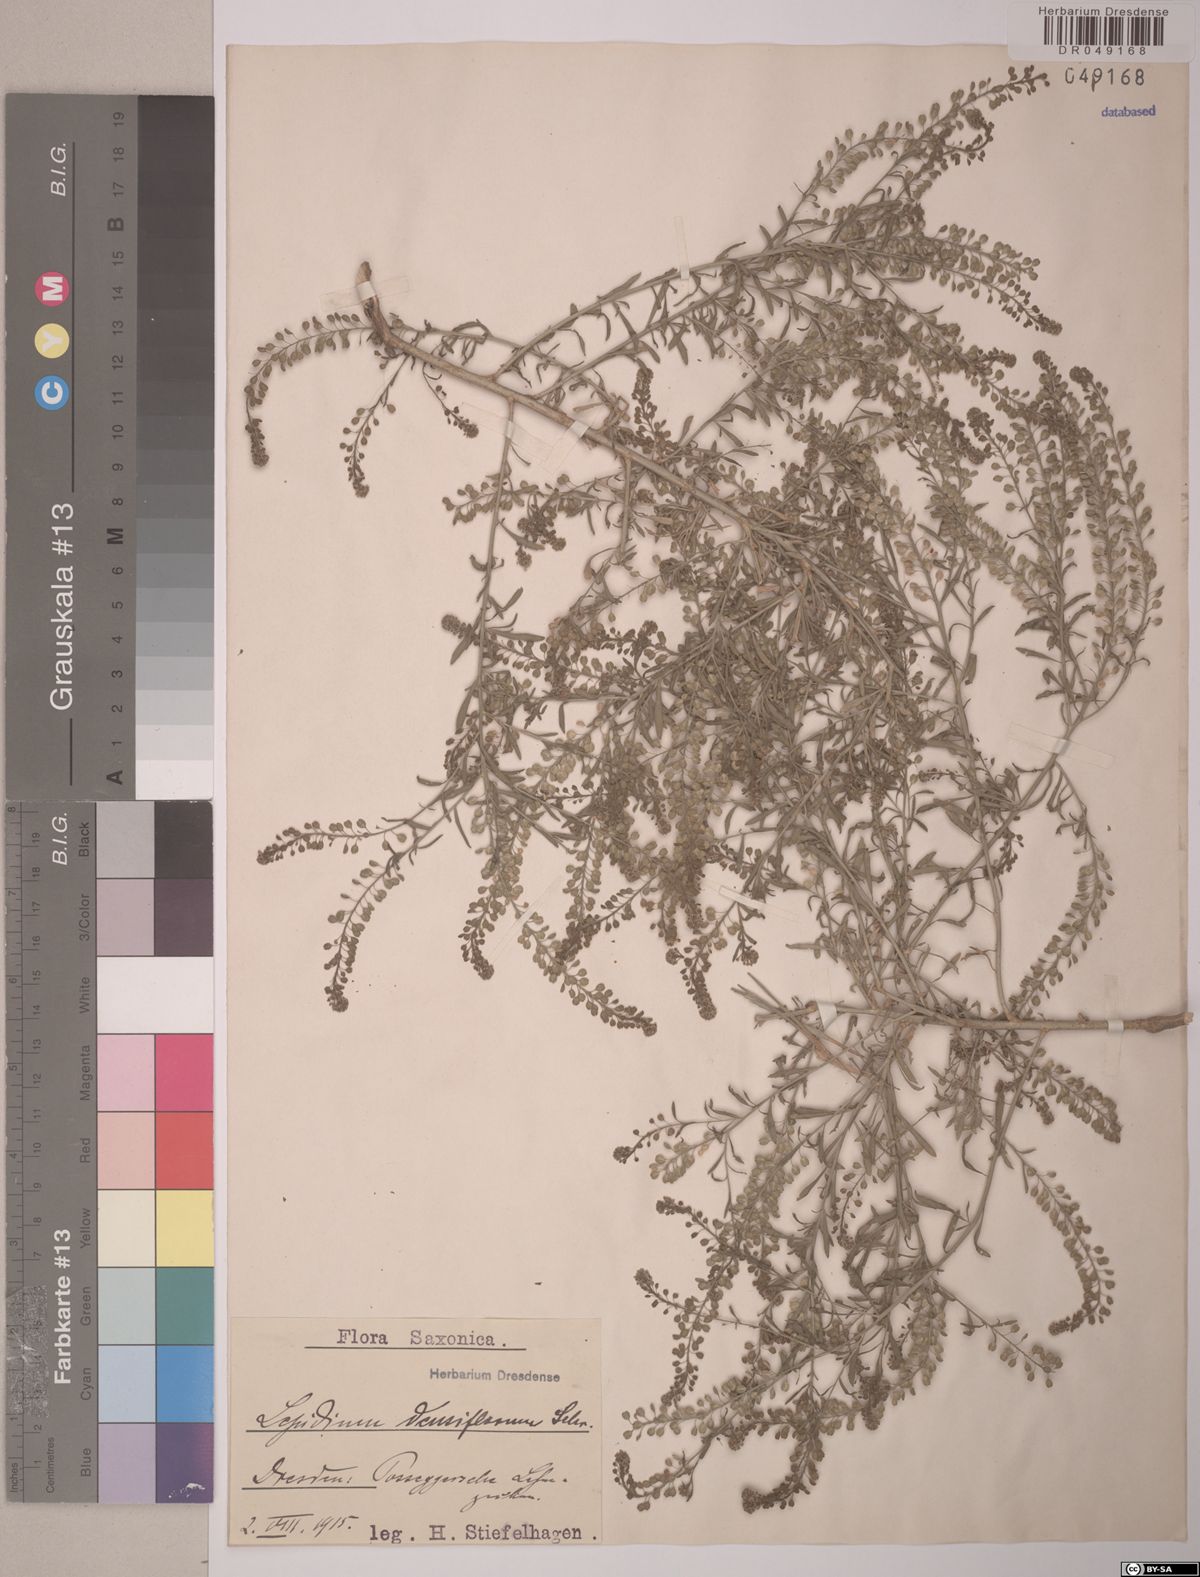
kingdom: Plantae
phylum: Tracheophyta
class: Magnoliopsida
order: Brassicales
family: Brassicaceae
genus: Lepidium
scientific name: Lepidium densiflorum
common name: Miner's pepperwort
